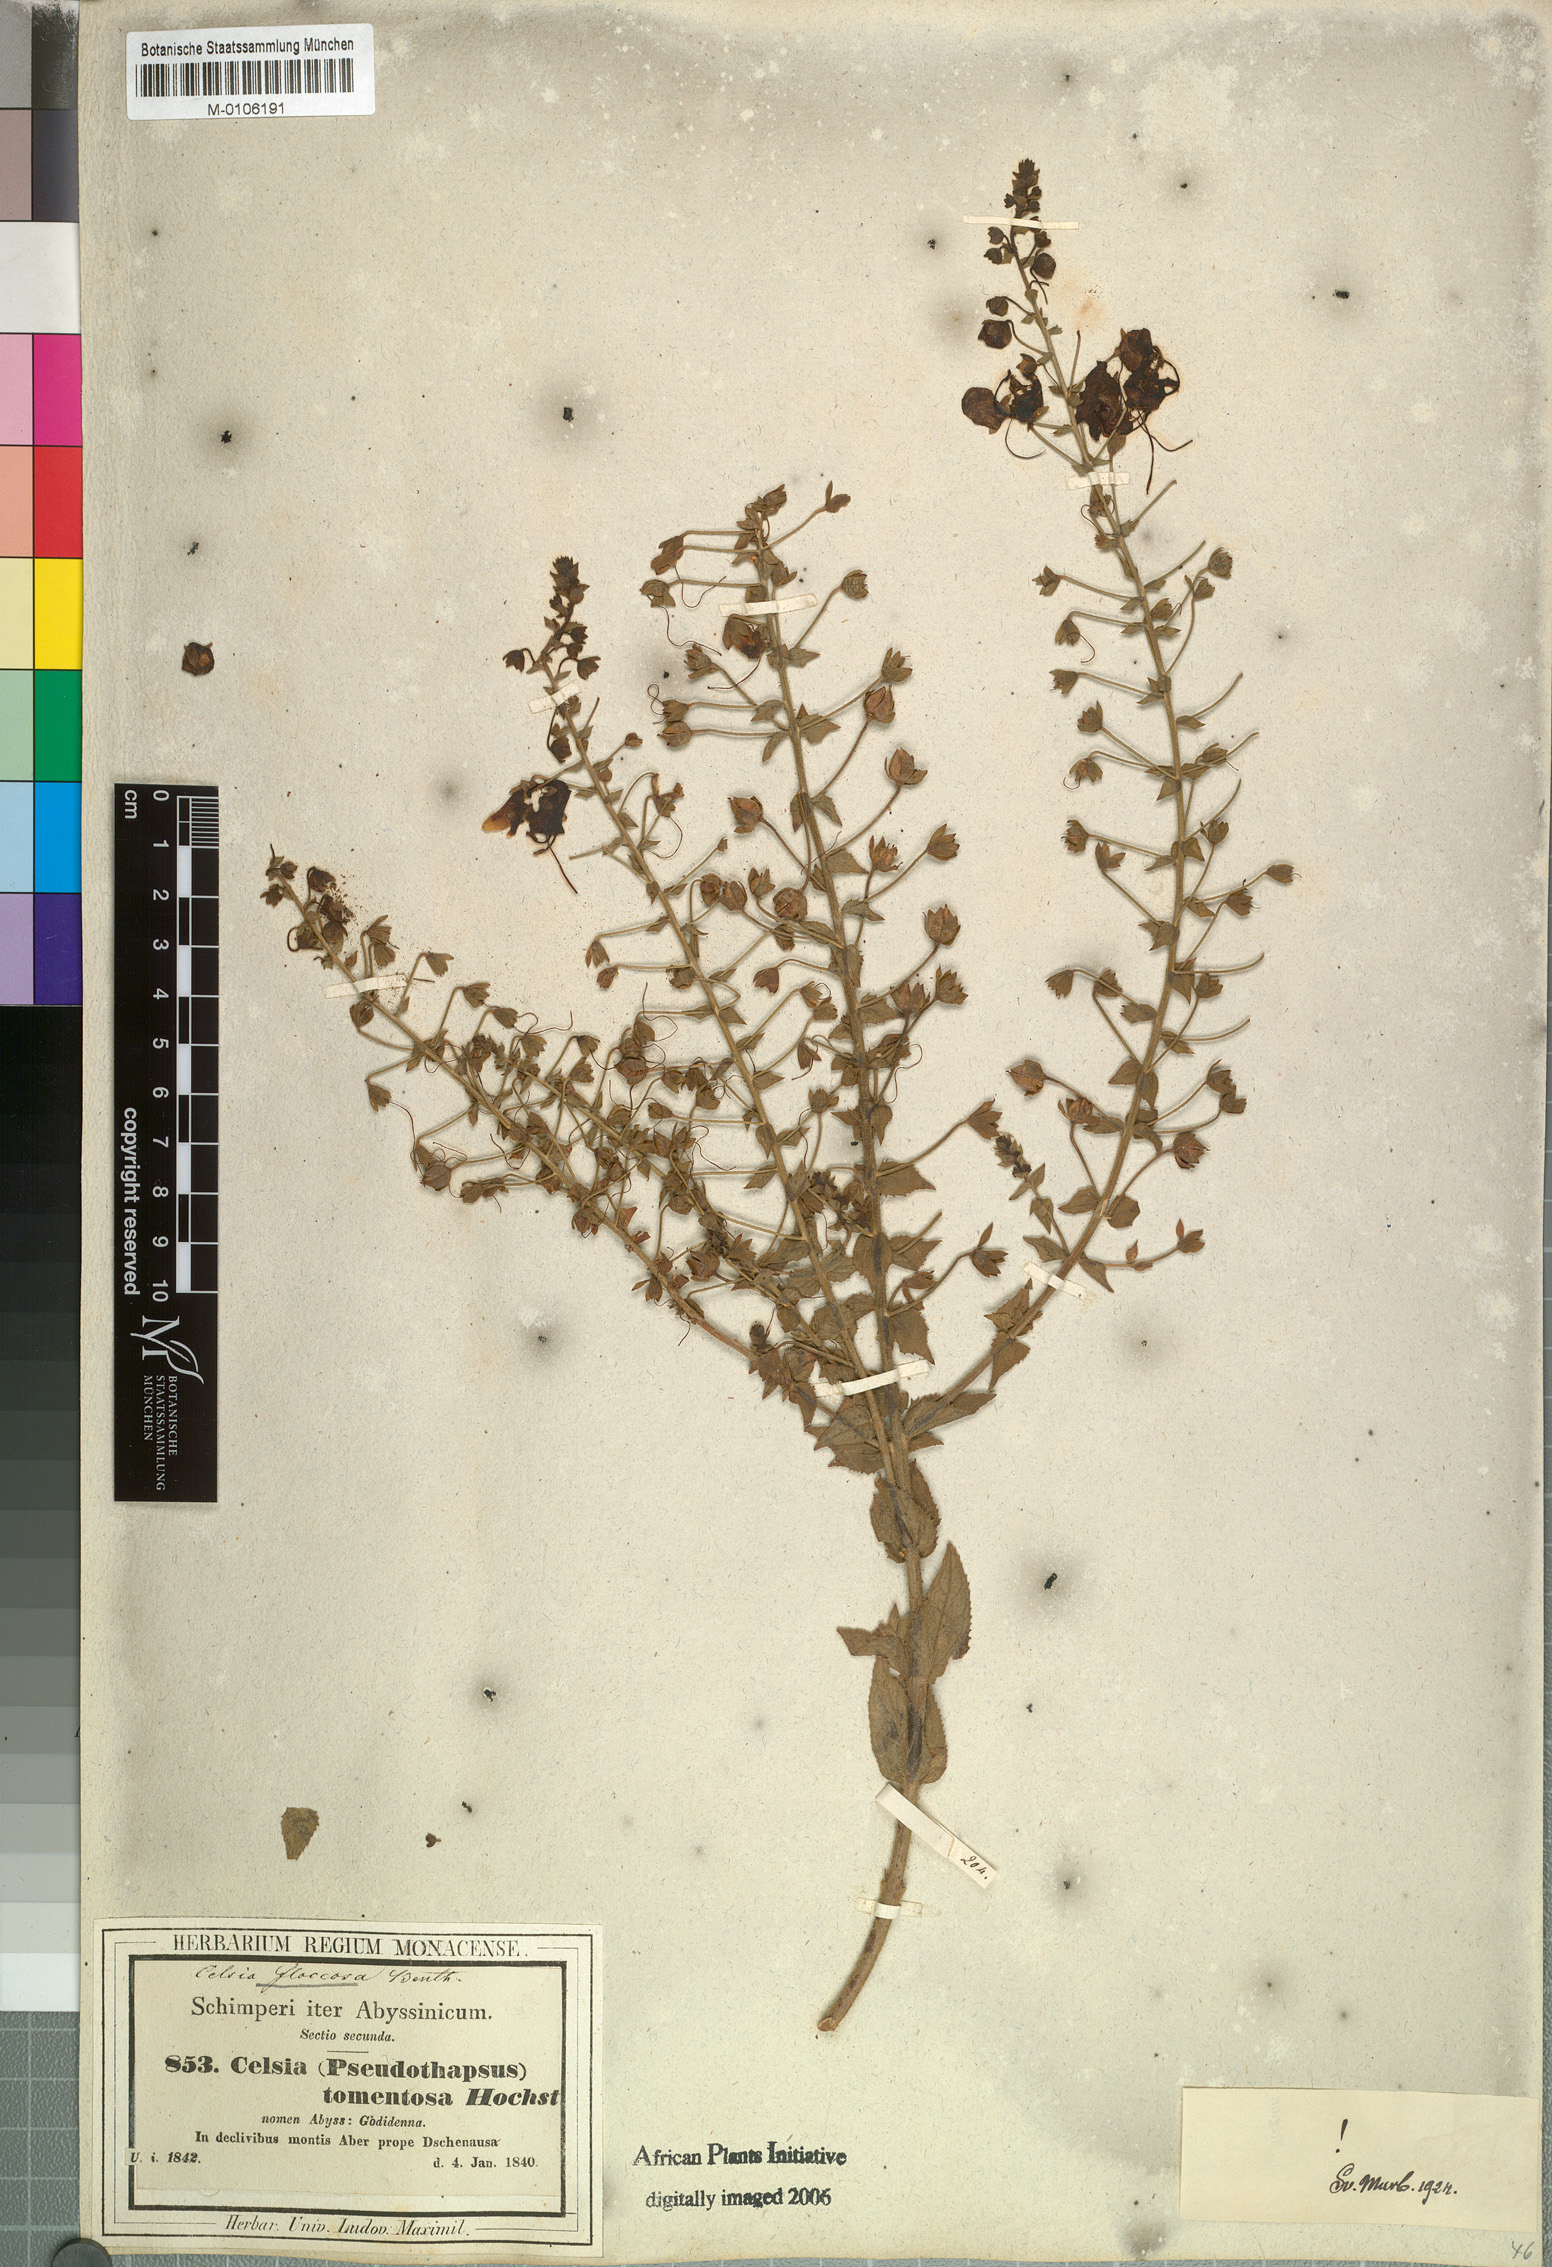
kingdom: Plantae
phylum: Tracheophyta
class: Magnoliopsida
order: Lamiales
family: Scrophulariaceae
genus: Verbascum
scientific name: Verbascum benthamianum
